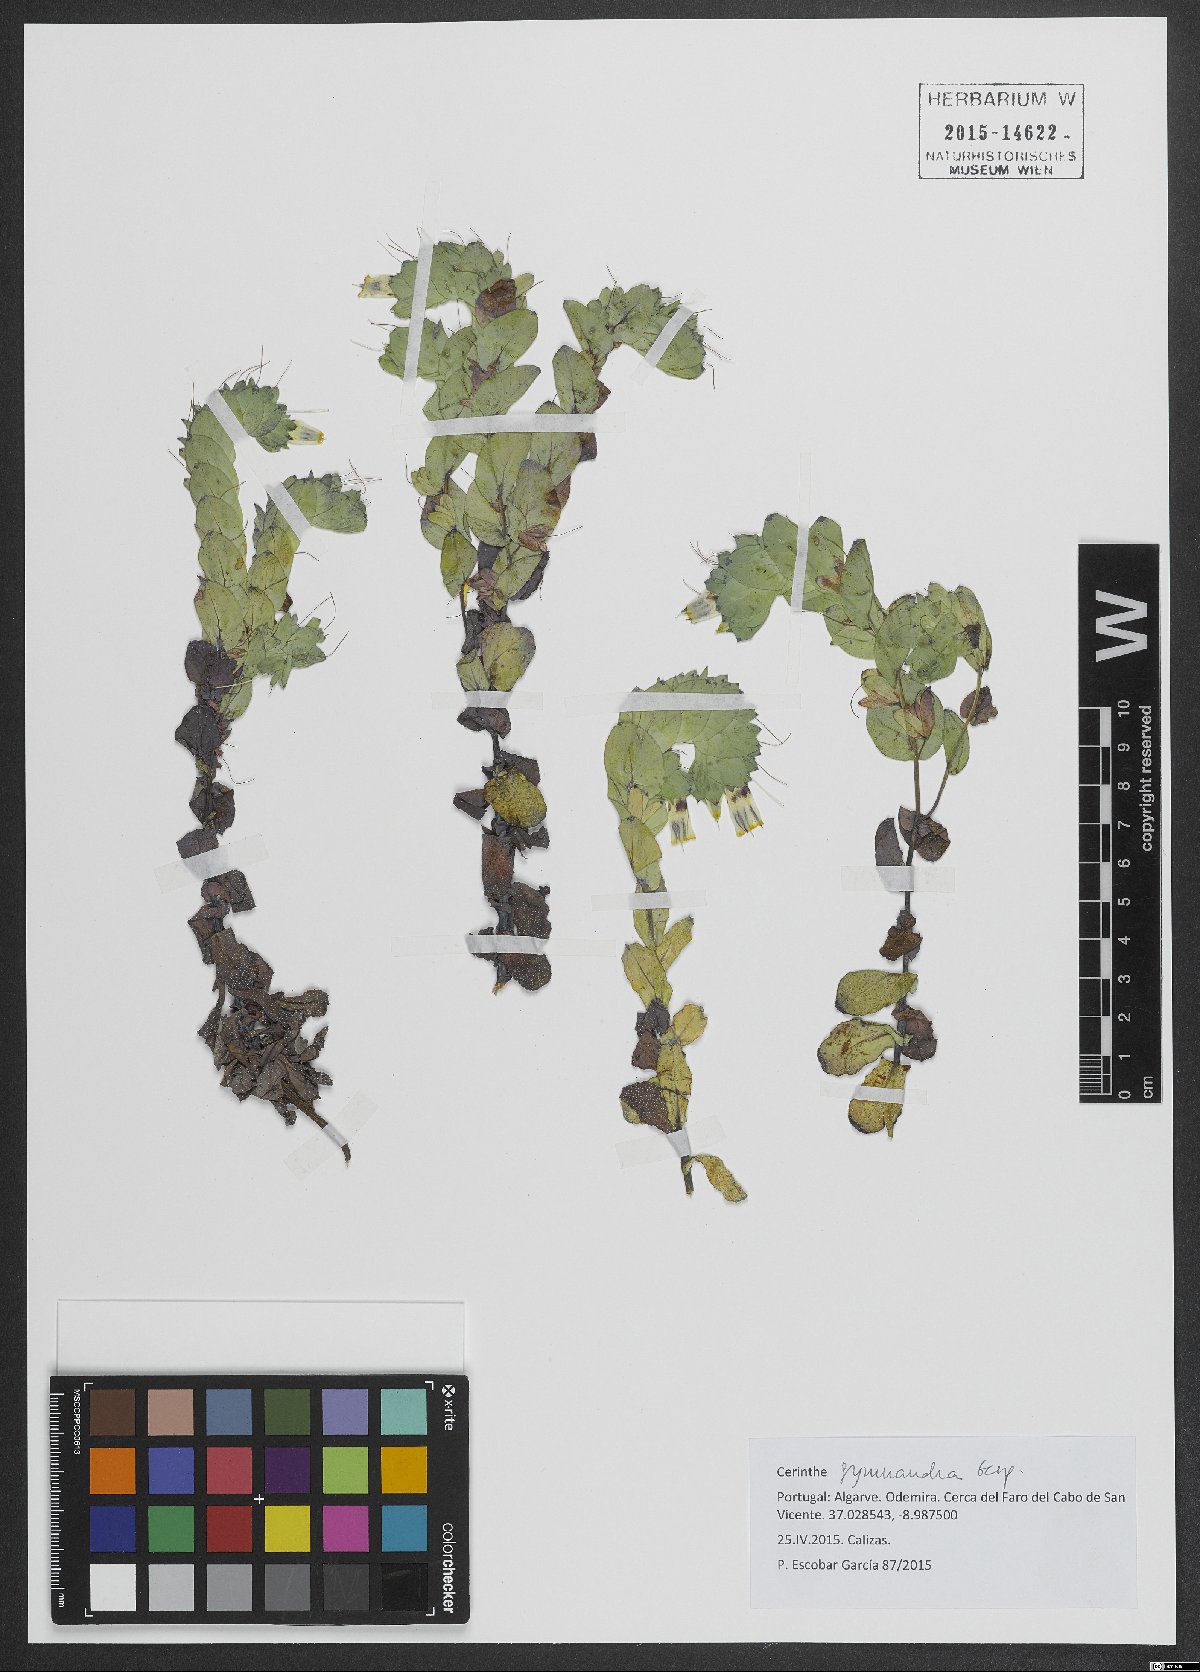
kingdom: Plantae
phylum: Tracheophyta
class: Magnoliopsida
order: Boraginales
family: Boraginaceae
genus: Cerinthe
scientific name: Cerinthe major
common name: Greater honeywort
